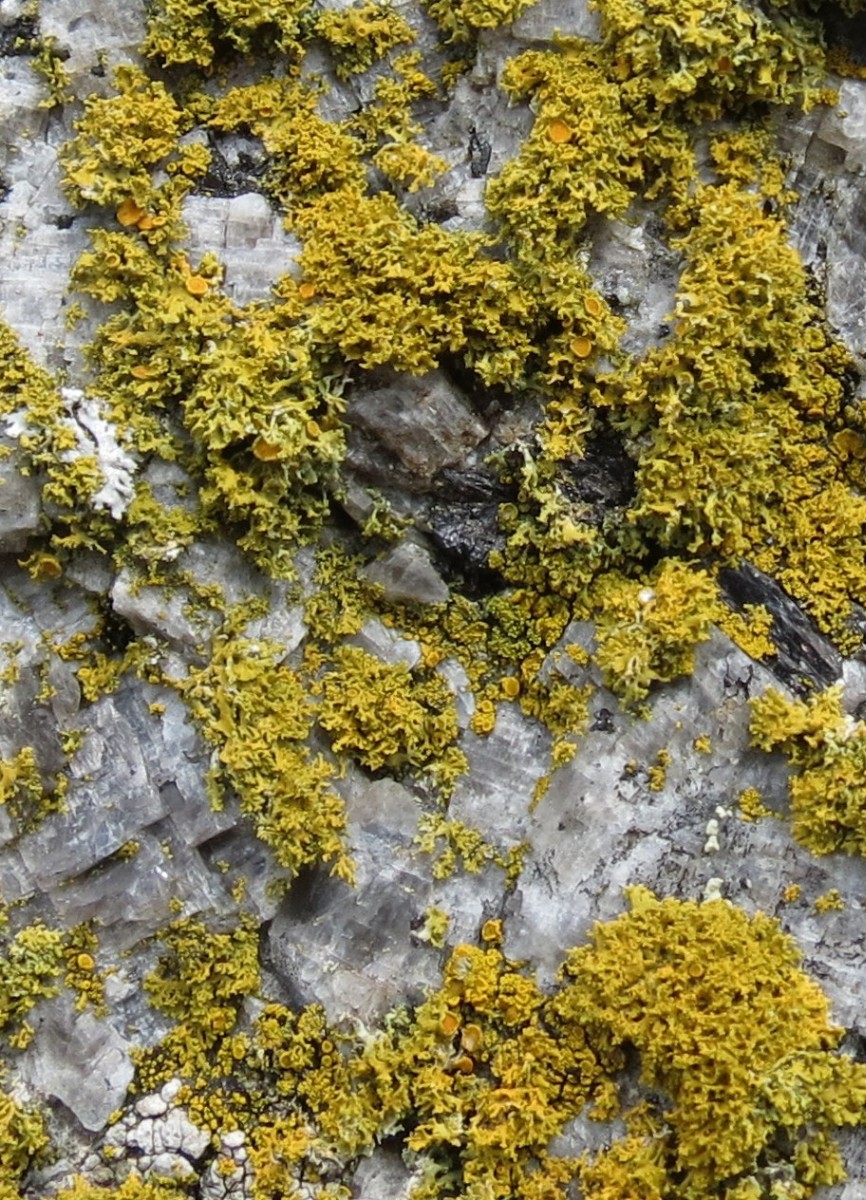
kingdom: Fungi
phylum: Ascomycota
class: Lecanoromycetes
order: Teloschistales
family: Teloschistaceae
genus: Polycauliona
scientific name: Polycauliona candelaria
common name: tue-orangelav
